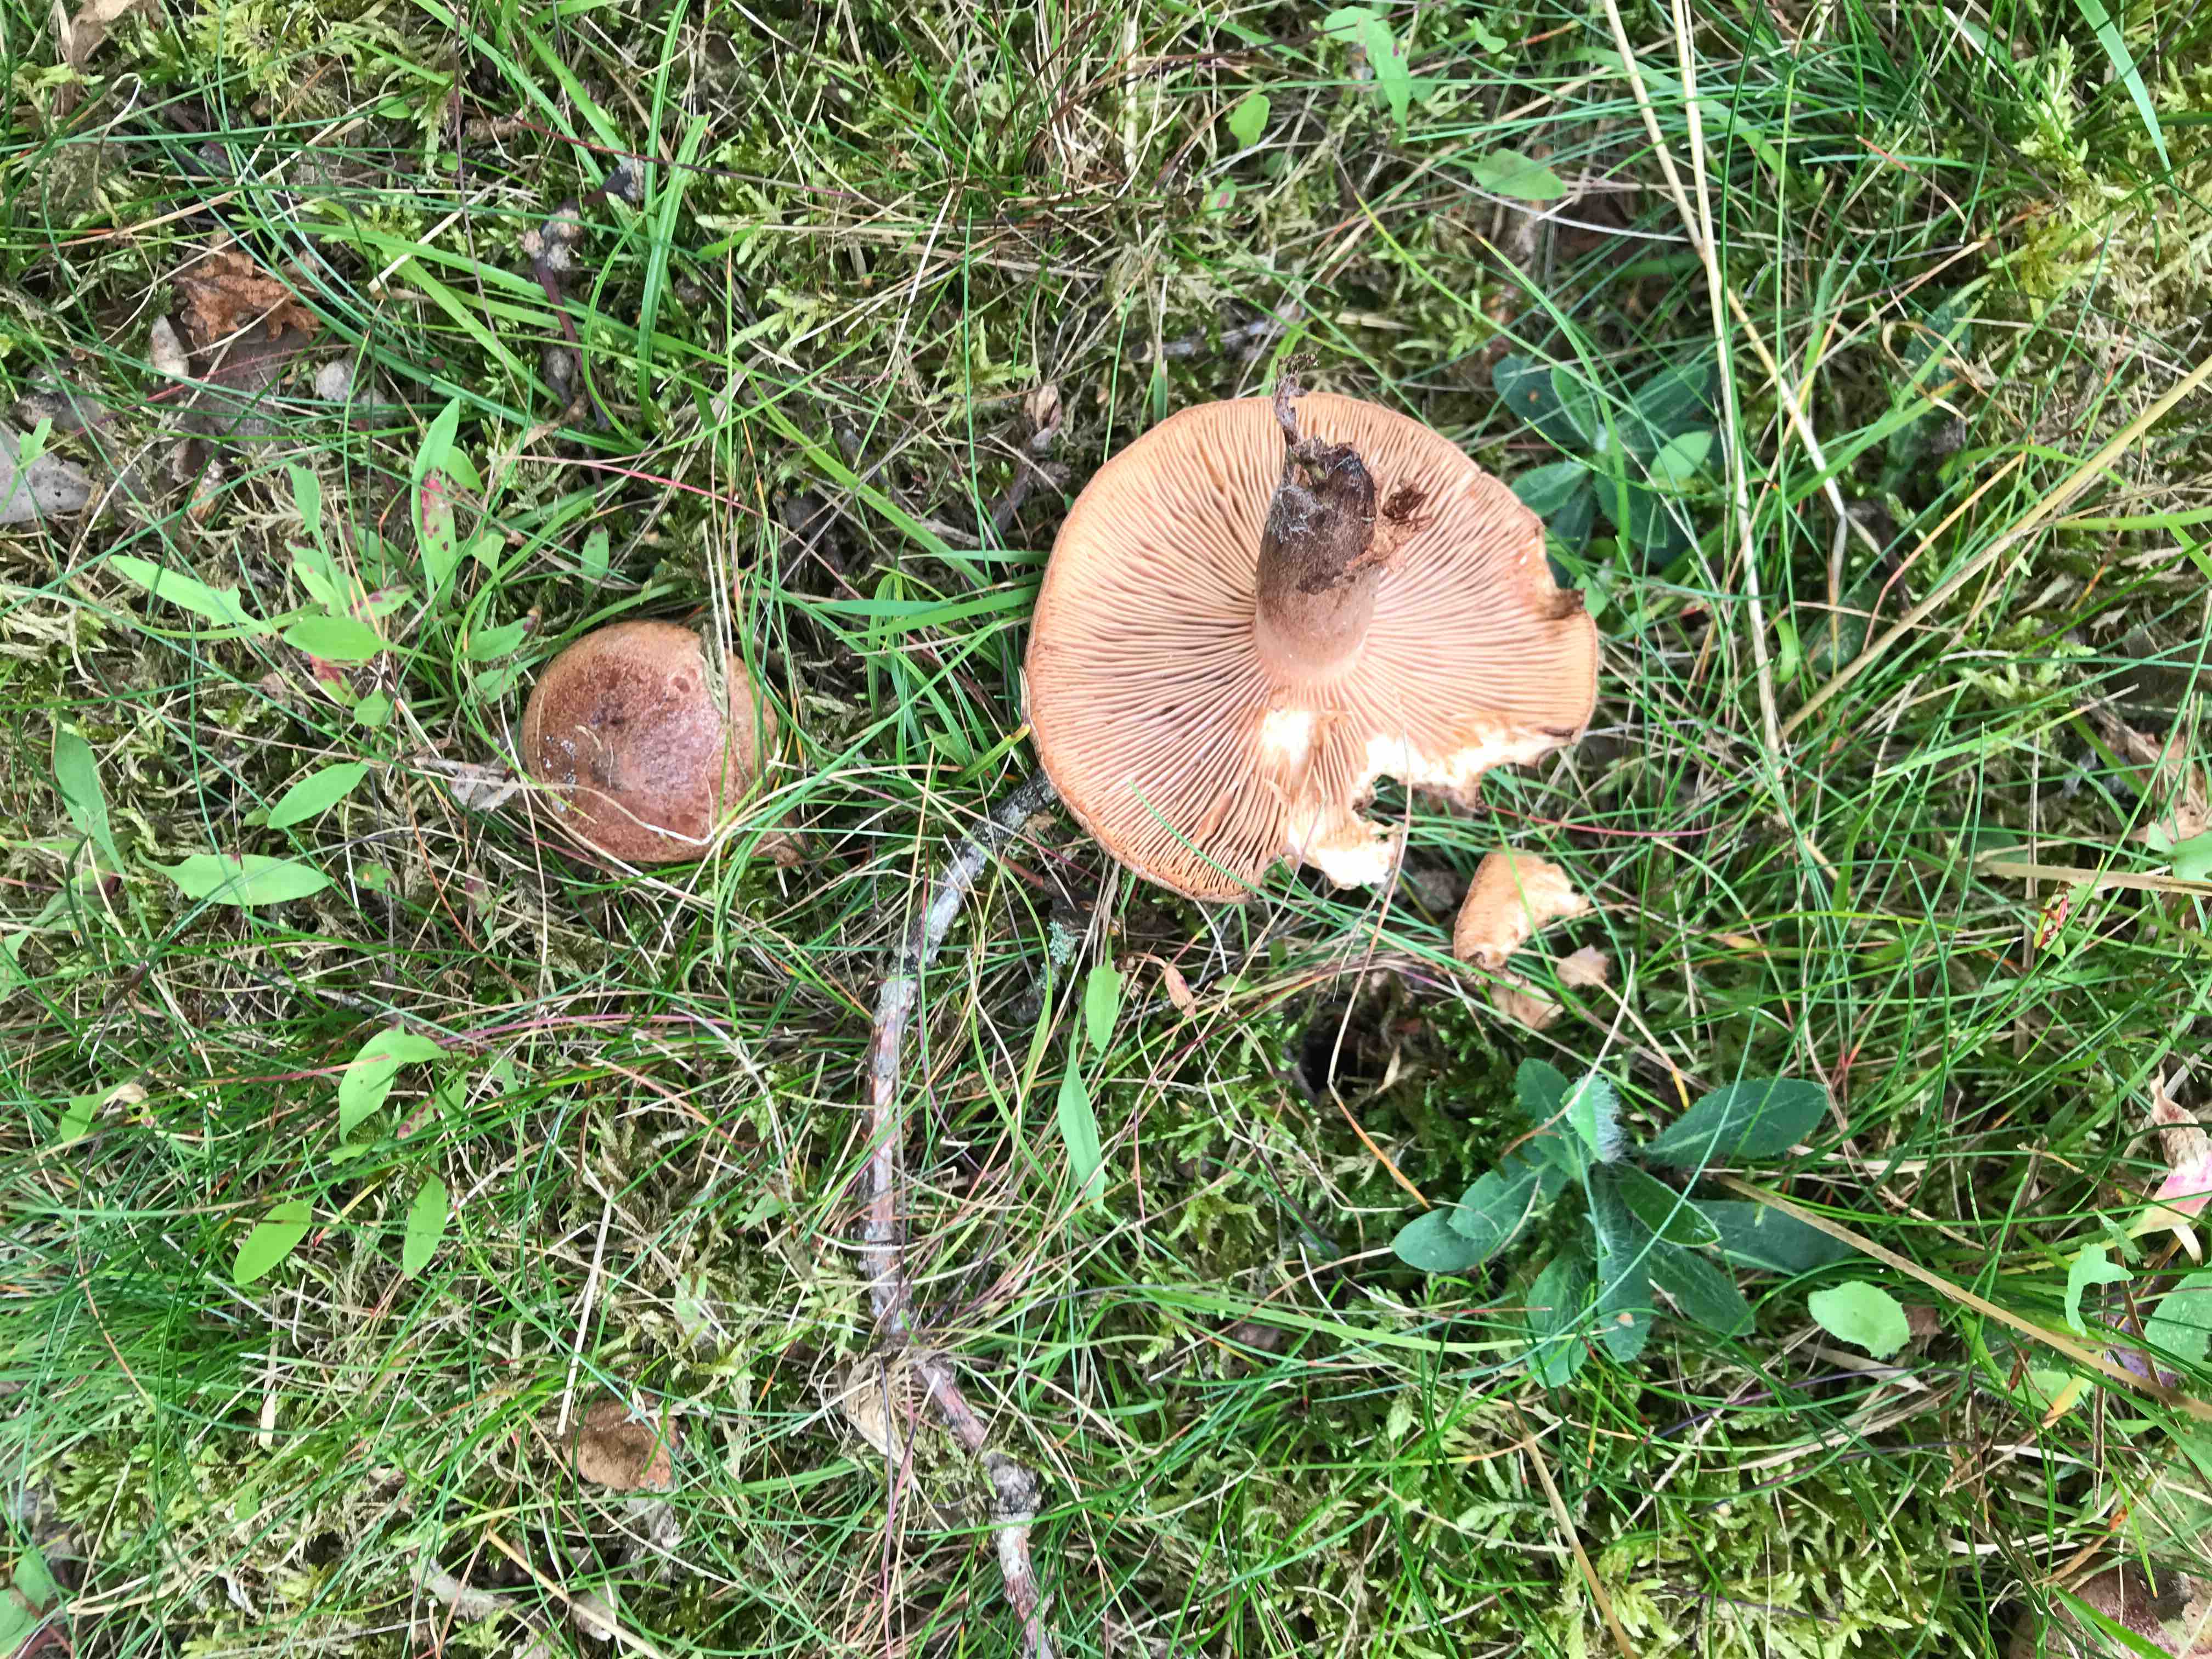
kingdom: Fungi
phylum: Basidiomycota
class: Agaricomycetes
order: Russulales
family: Russulaceae
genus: Lactarius
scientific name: Lactarius quietus
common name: ege-mælkehat
